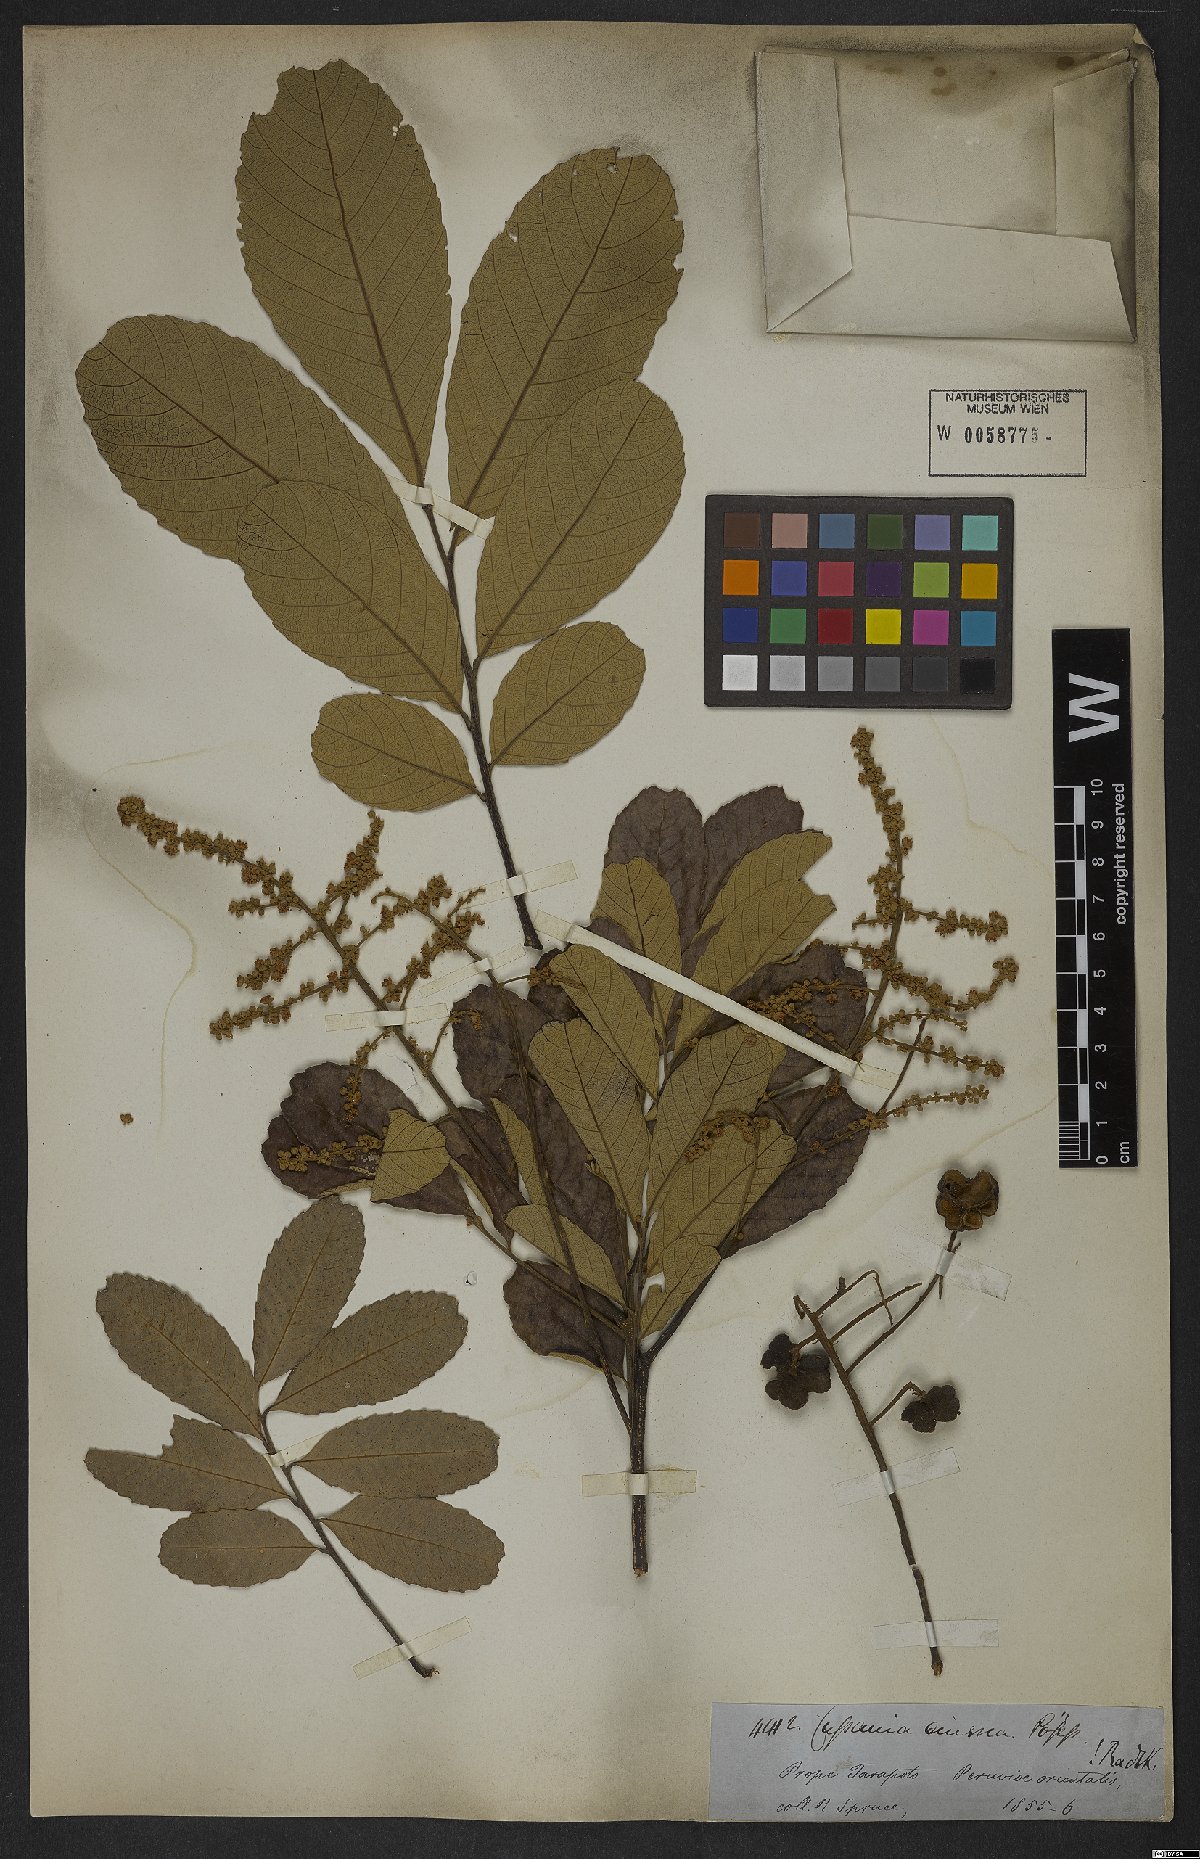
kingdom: Plantae
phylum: Tracheophyta
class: Magnoliopsida
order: Sapindales
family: Sapindaceae
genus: Cupania
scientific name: Cupania cinerea
